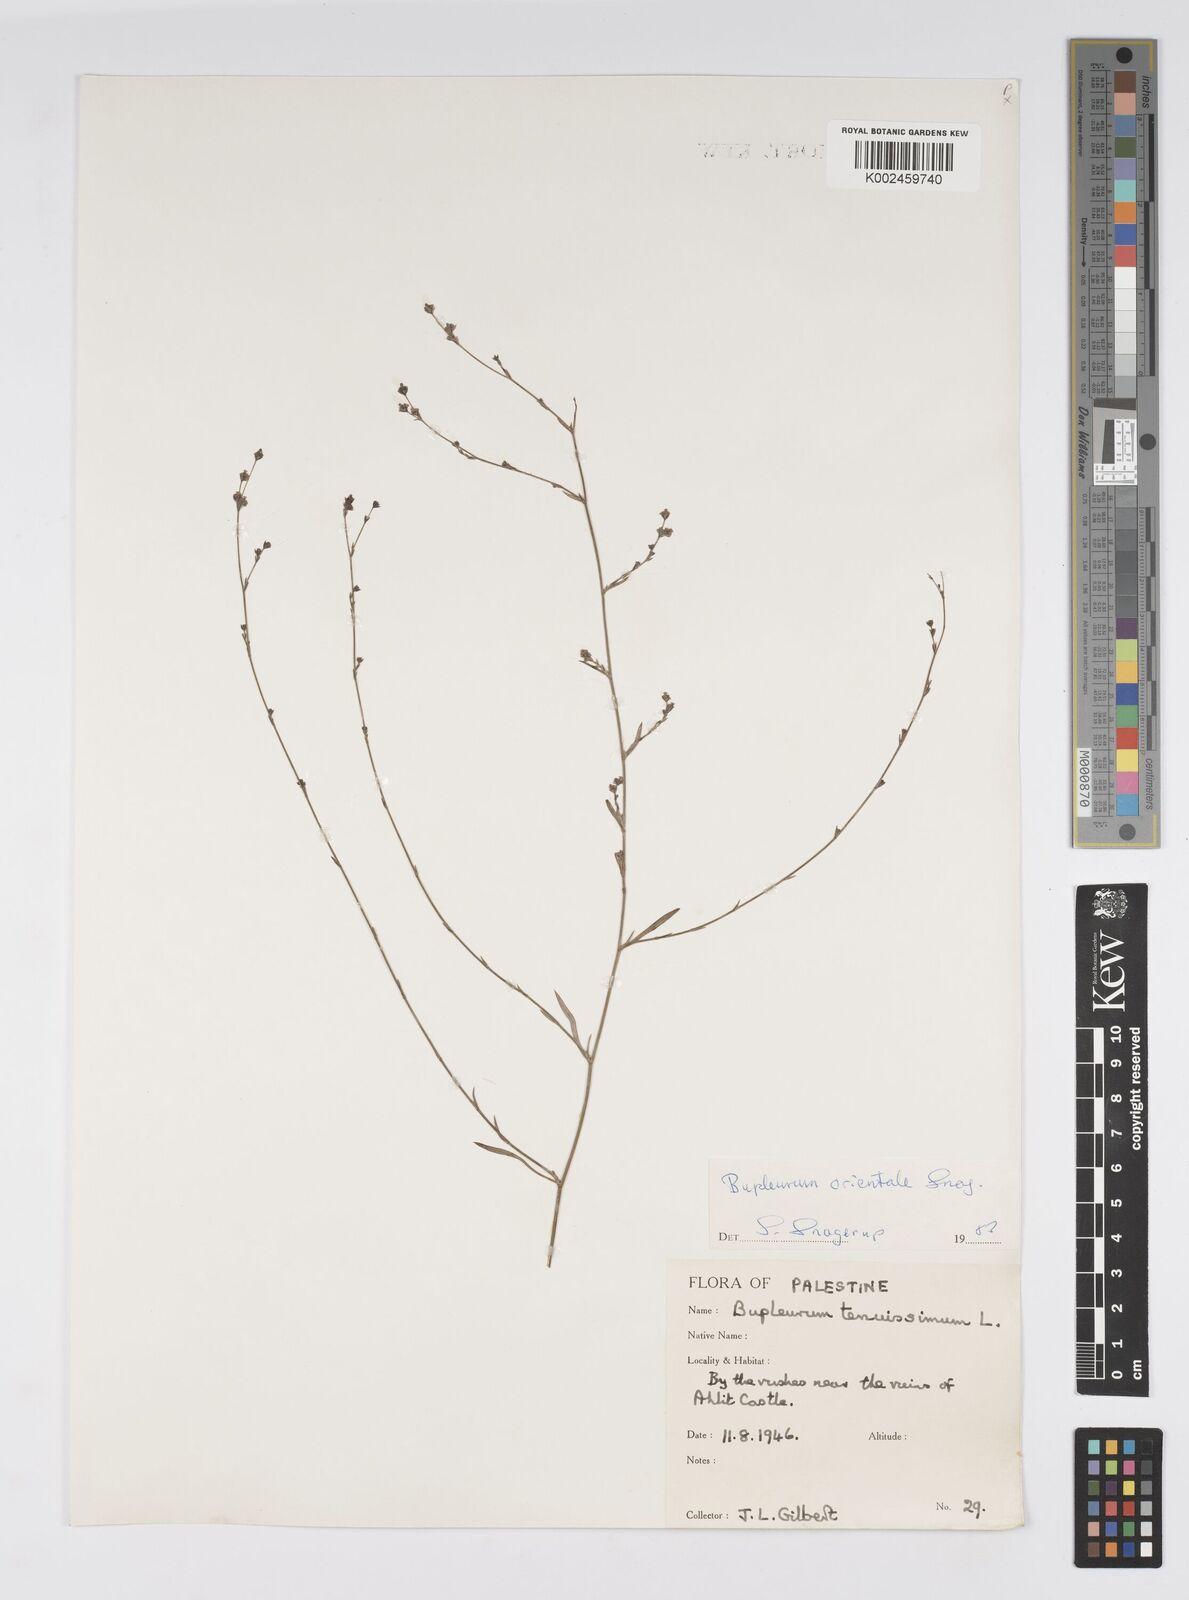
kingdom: Plantae
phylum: Tracheophyta
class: Magnoliopsida
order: Apiales
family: Apiaceae
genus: Bupleurum
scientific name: Bupleurum orientale
